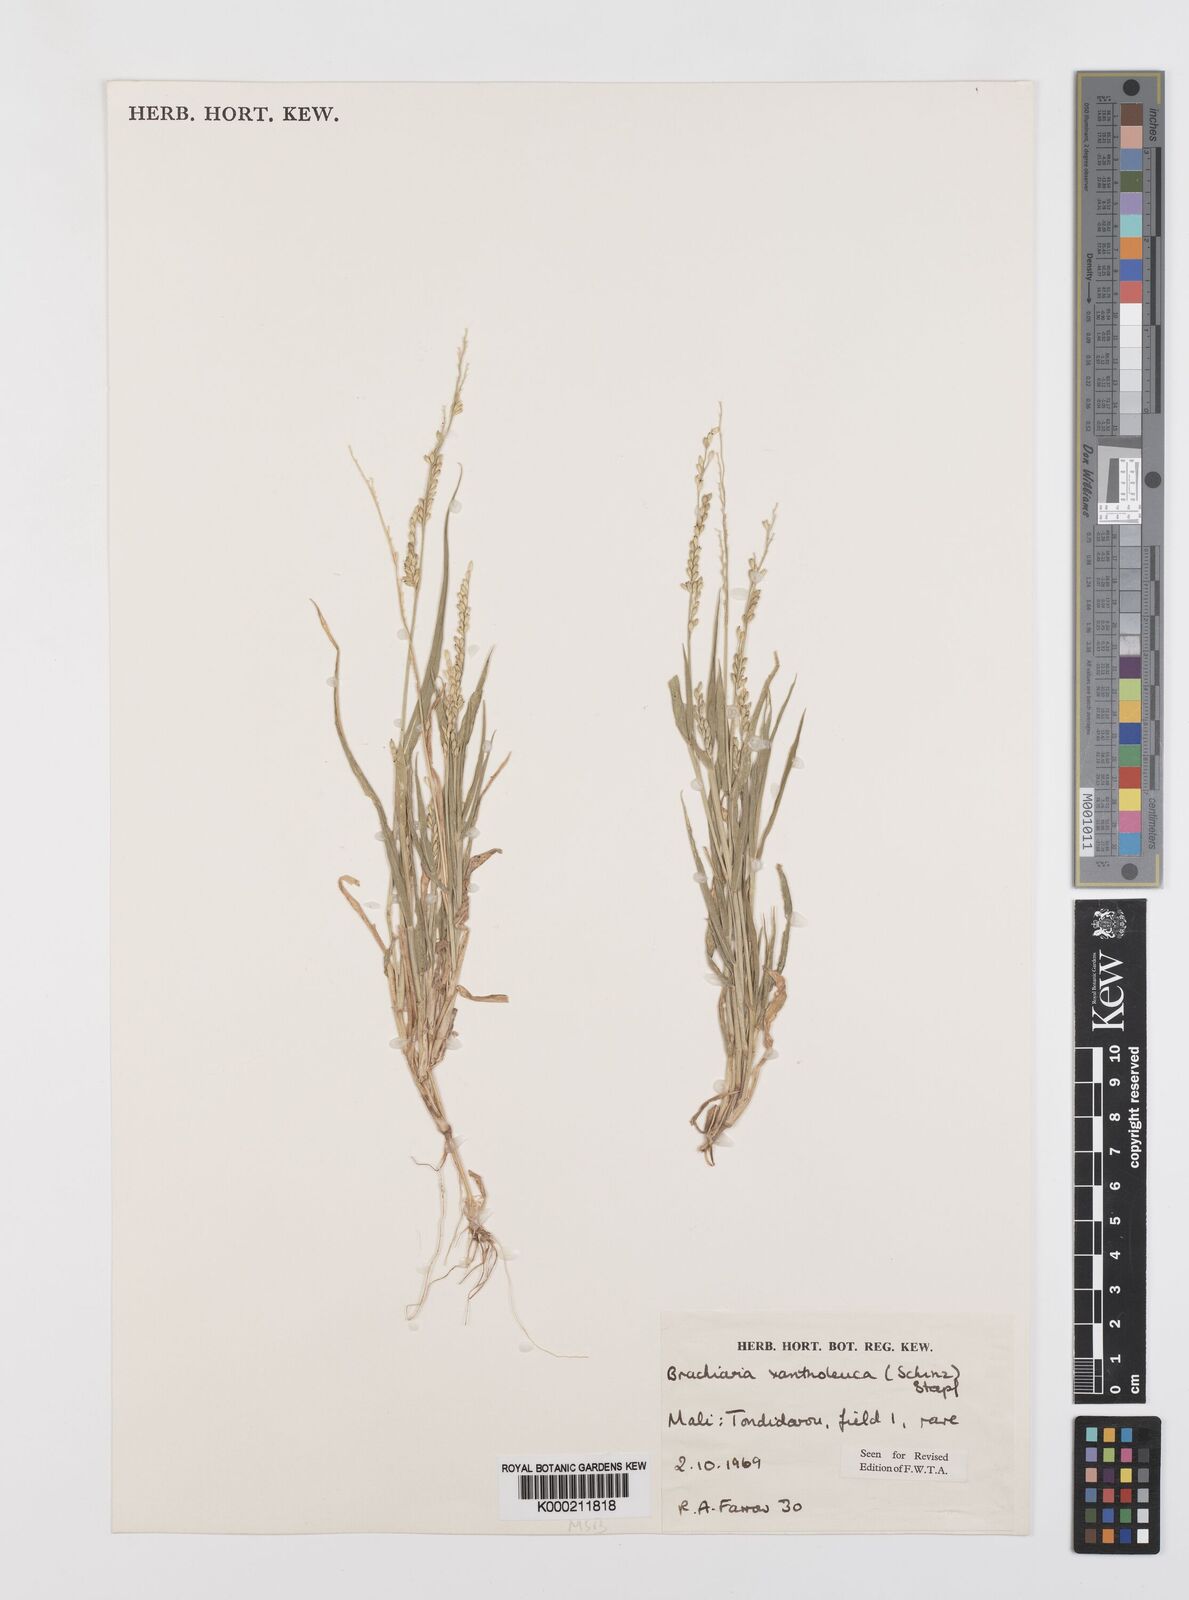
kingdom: Plantae
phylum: Tracheophyta
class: Liliopsida
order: Poales
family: Poaceae
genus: Urochloa
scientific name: Urochloa xantholeuca
